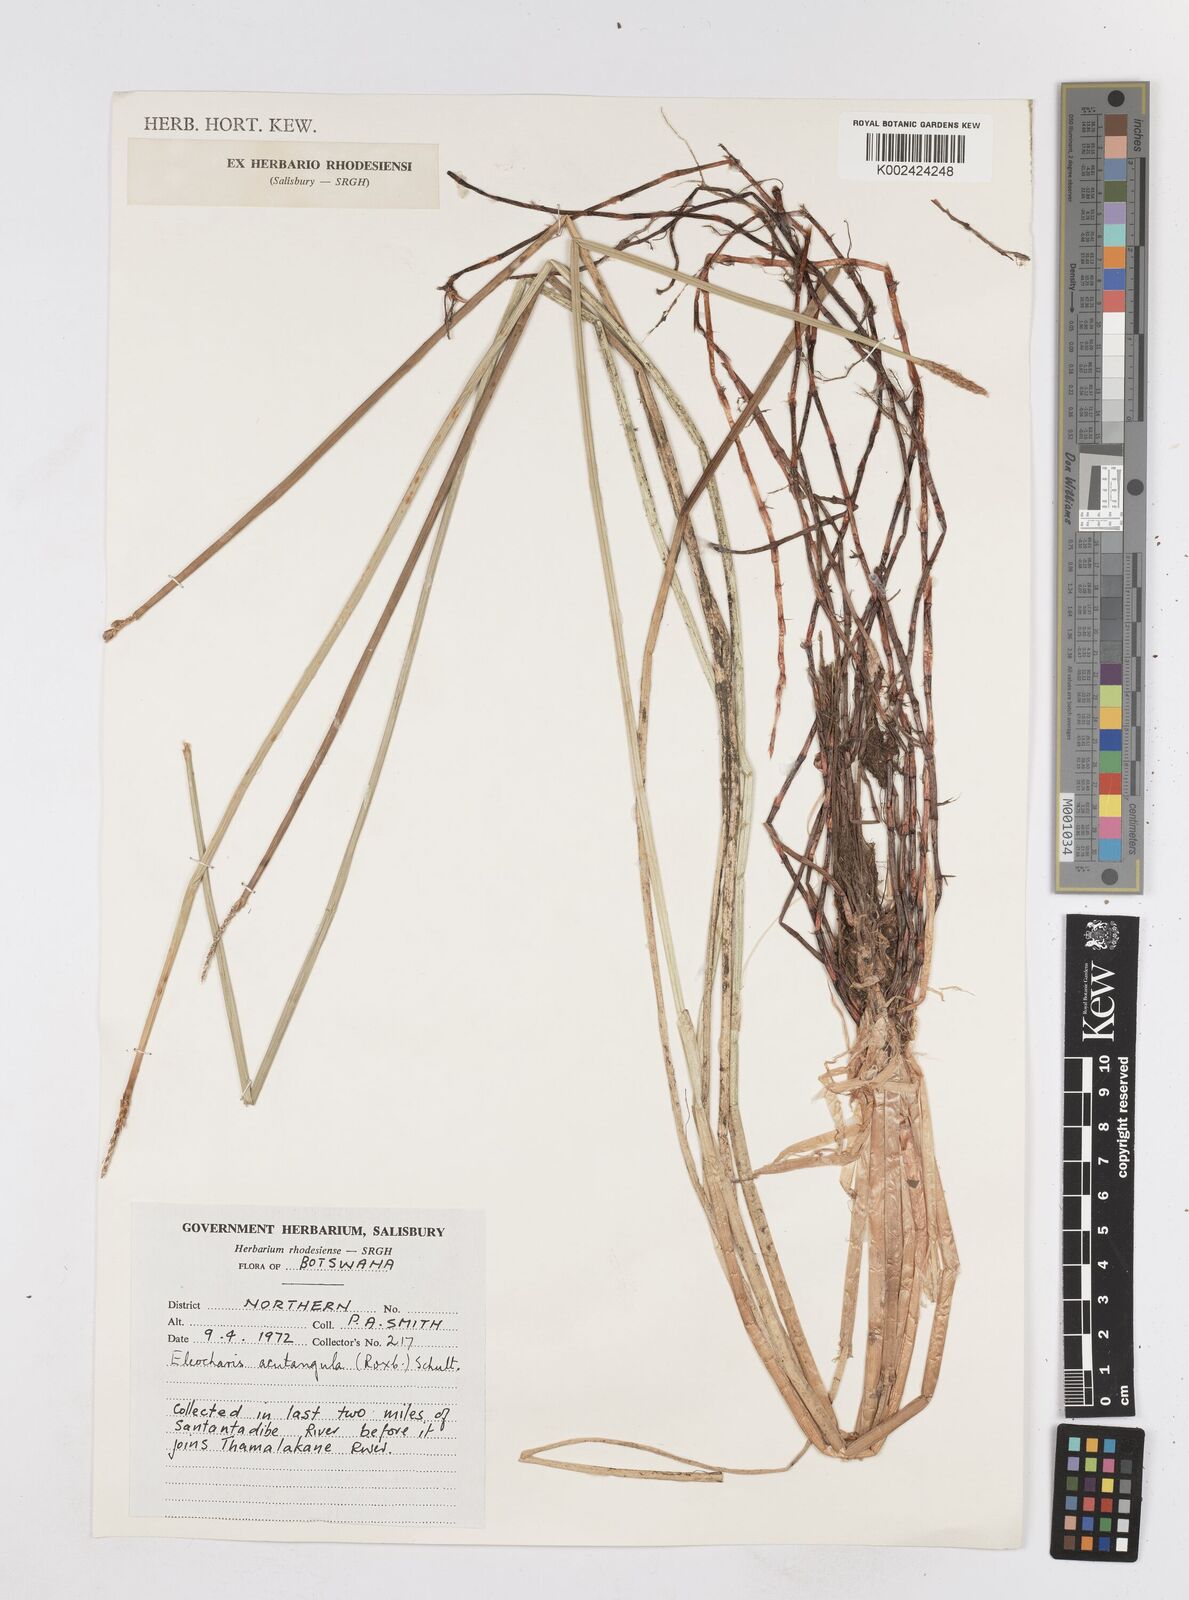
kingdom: Plantae
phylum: Tracheophyta
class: Liliopsida
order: Poales
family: Cyperaceae
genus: Eleocharis
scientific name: Eleocharis acutangula
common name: Acute spikerush
